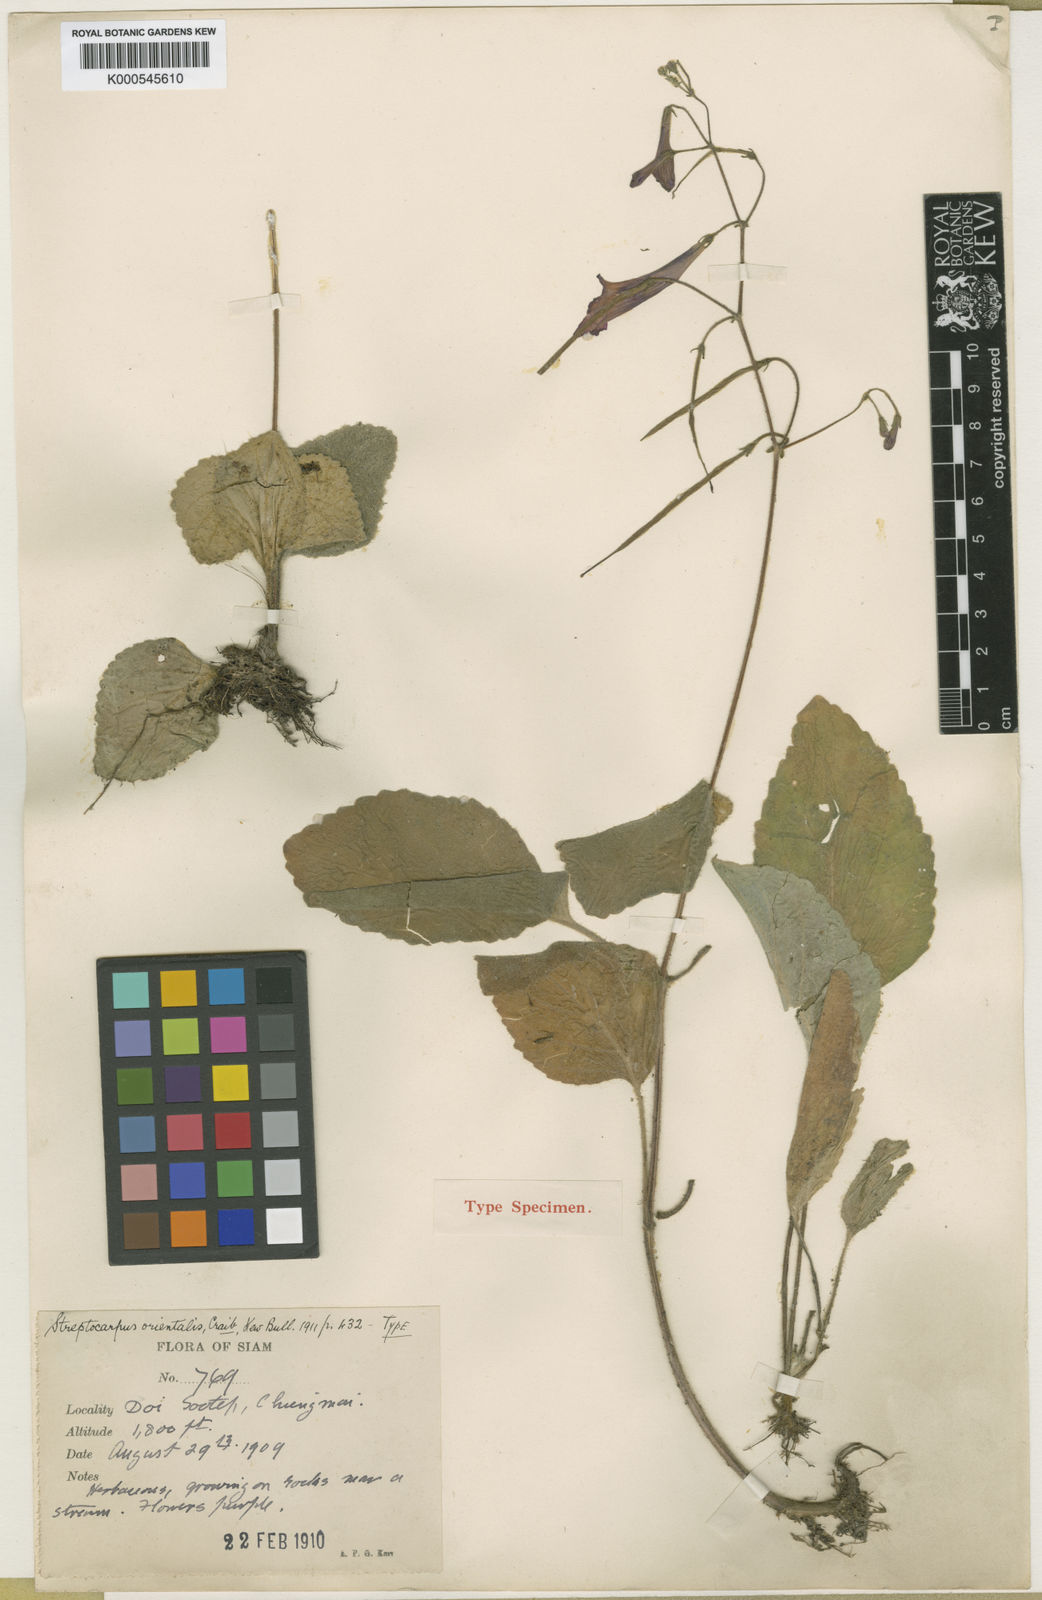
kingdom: Plantae
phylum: Tracheophyta
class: Magnoliopsida
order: Lamiales
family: Gesneriaceae
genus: Damrongia
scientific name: Damrongia orientalis
